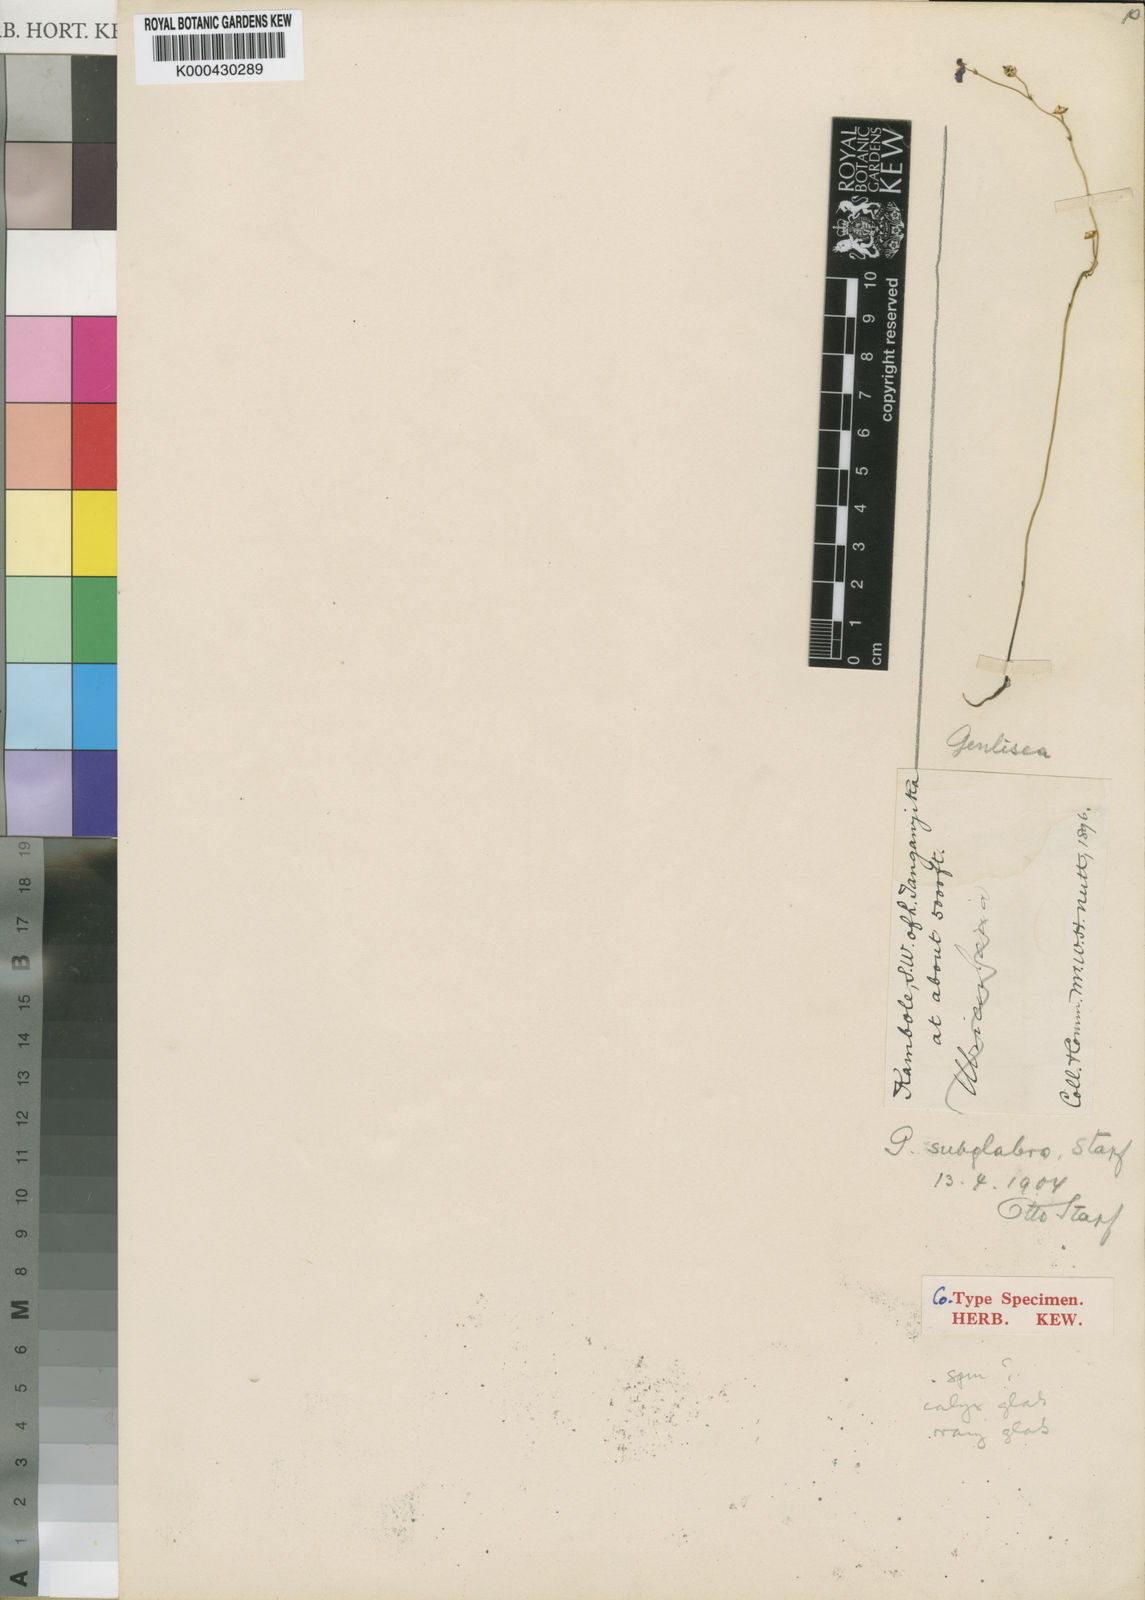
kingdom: Plantae
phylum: Tracheophyta
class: Magnoliopsida
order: Lamiales
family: Lentibulariaceae
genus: Genlisea
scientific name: Genlisea subglabra
